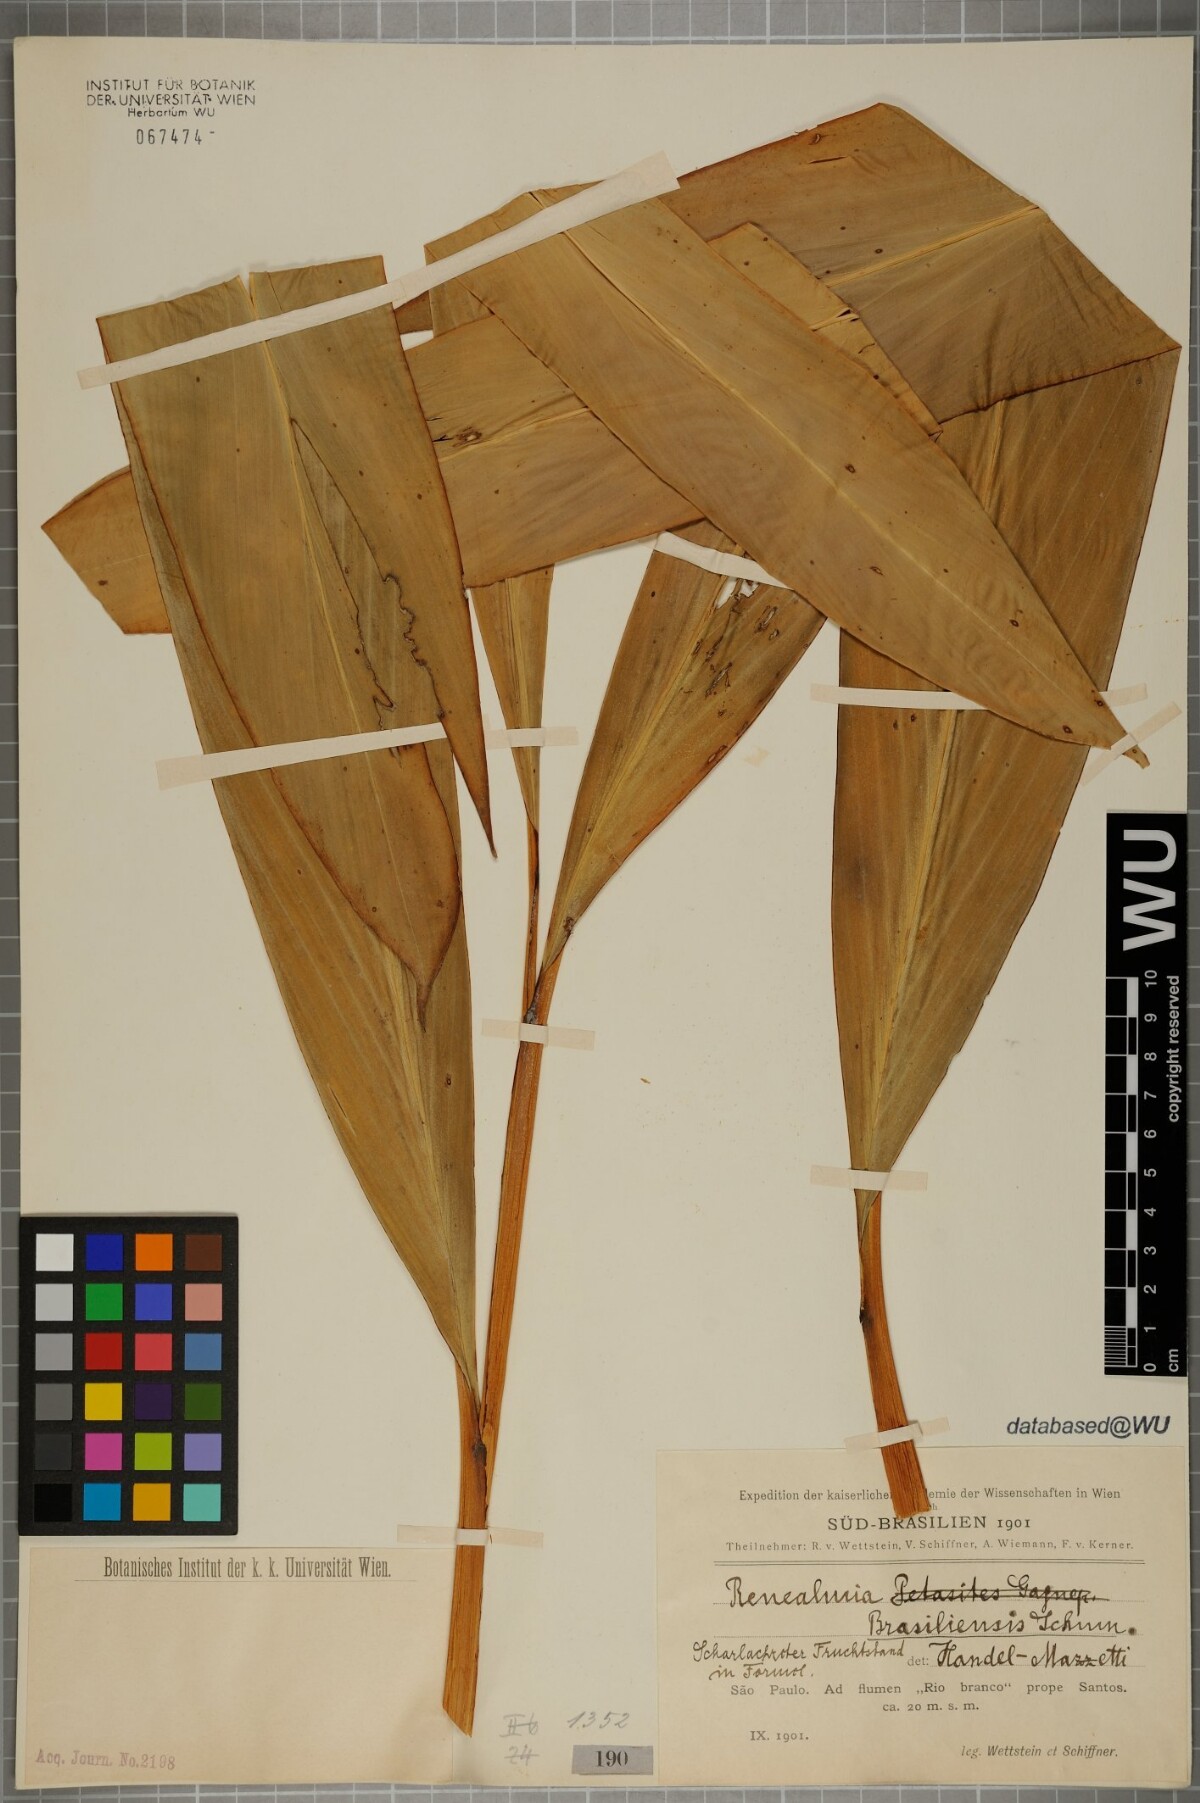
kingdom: Plantae
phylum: Tracheophyta
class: Liliopsida
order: Zingiberales
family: Zingiberaceae
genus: Renealmia
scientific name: Renealmia chrysotricha
